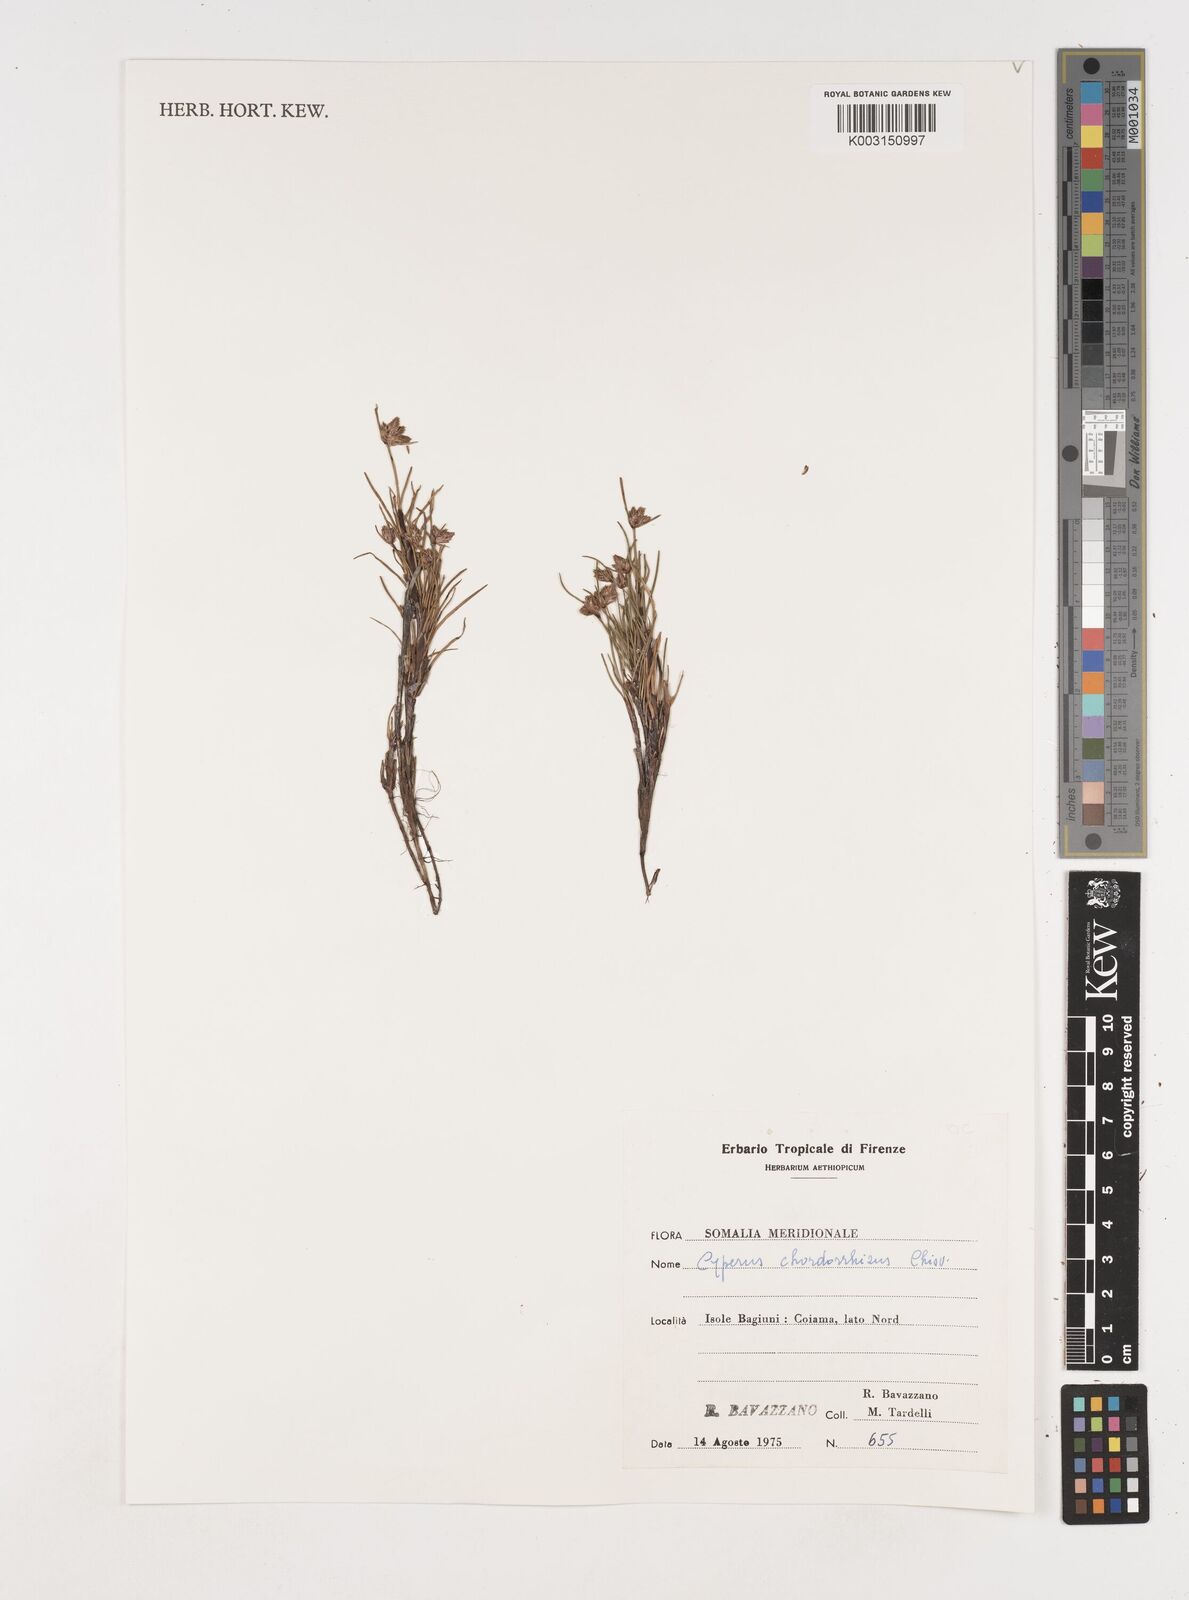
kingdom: Plantae
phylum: Tracheophyta
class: Liliopsida
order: Poales
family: Cyperaceae
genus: Cyperus
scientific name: Cyperus chordorrhizus
